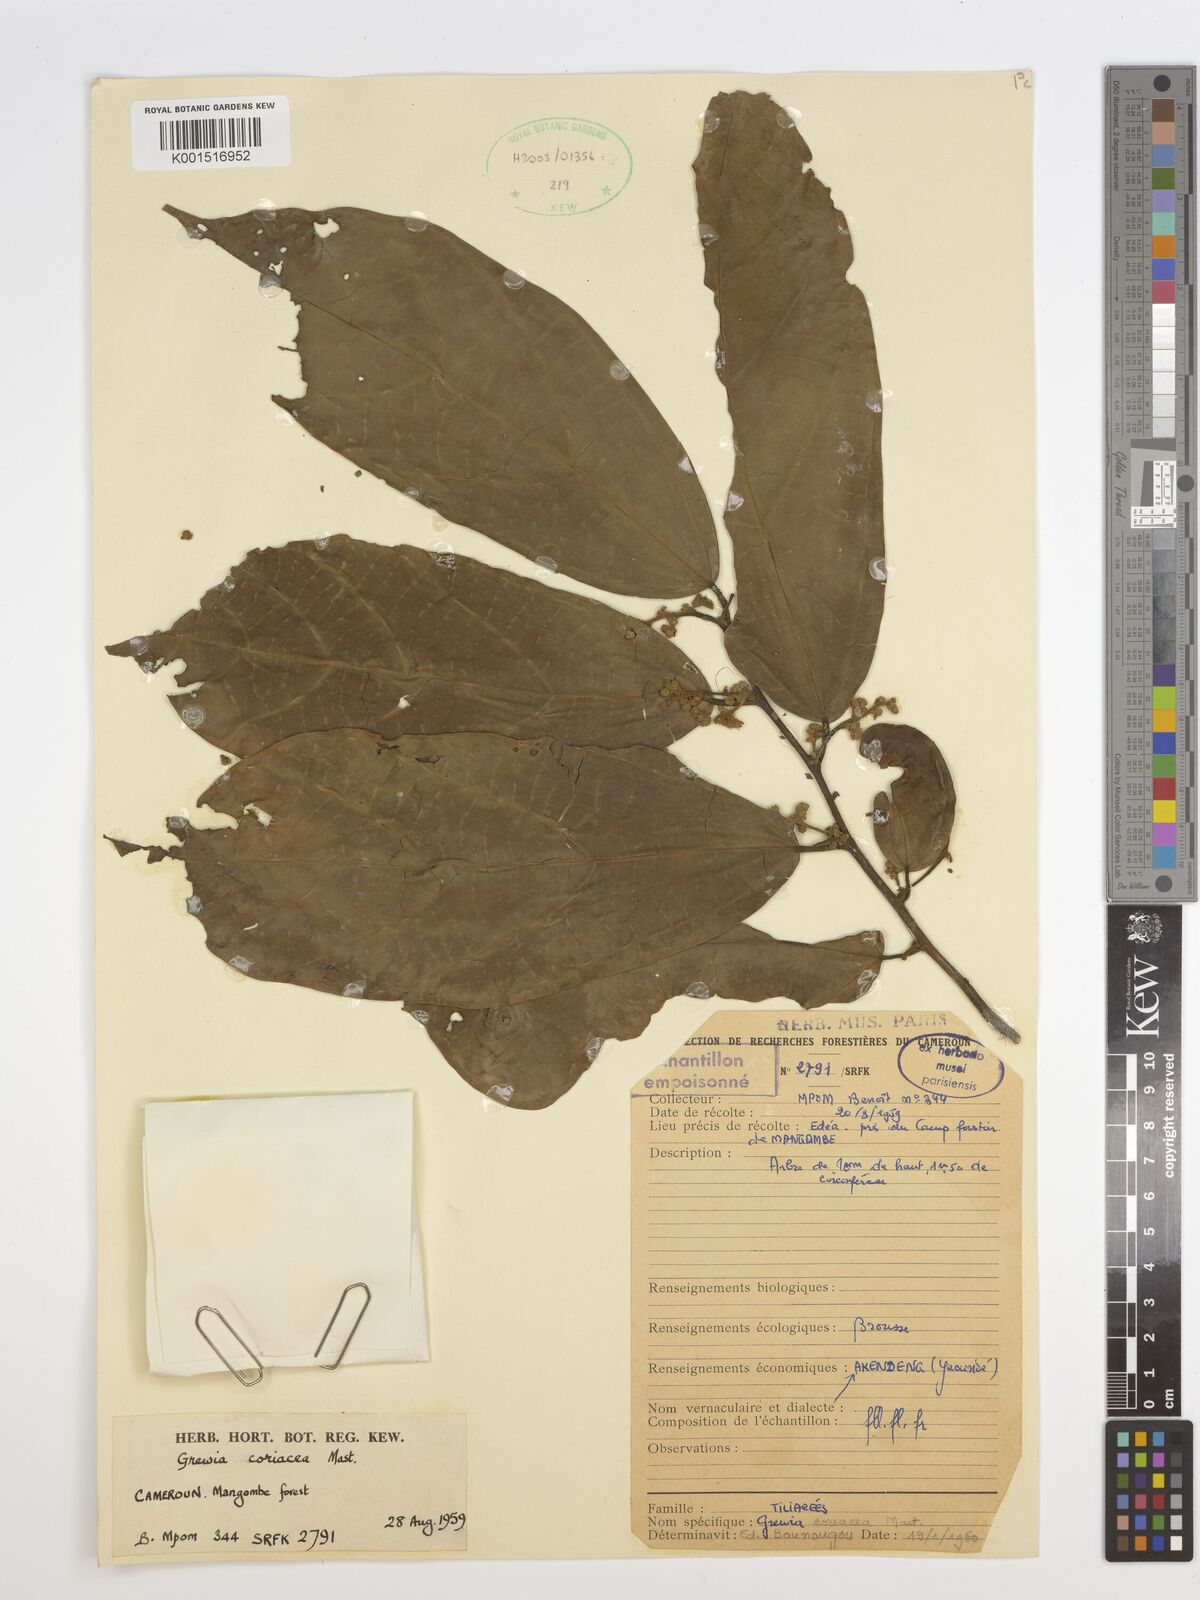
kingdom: Plantae
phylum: Tracheophyta
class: Magnoliopsida
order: Malvales
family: Malvaceae
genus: Microcos
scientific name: Microcos coriacea
